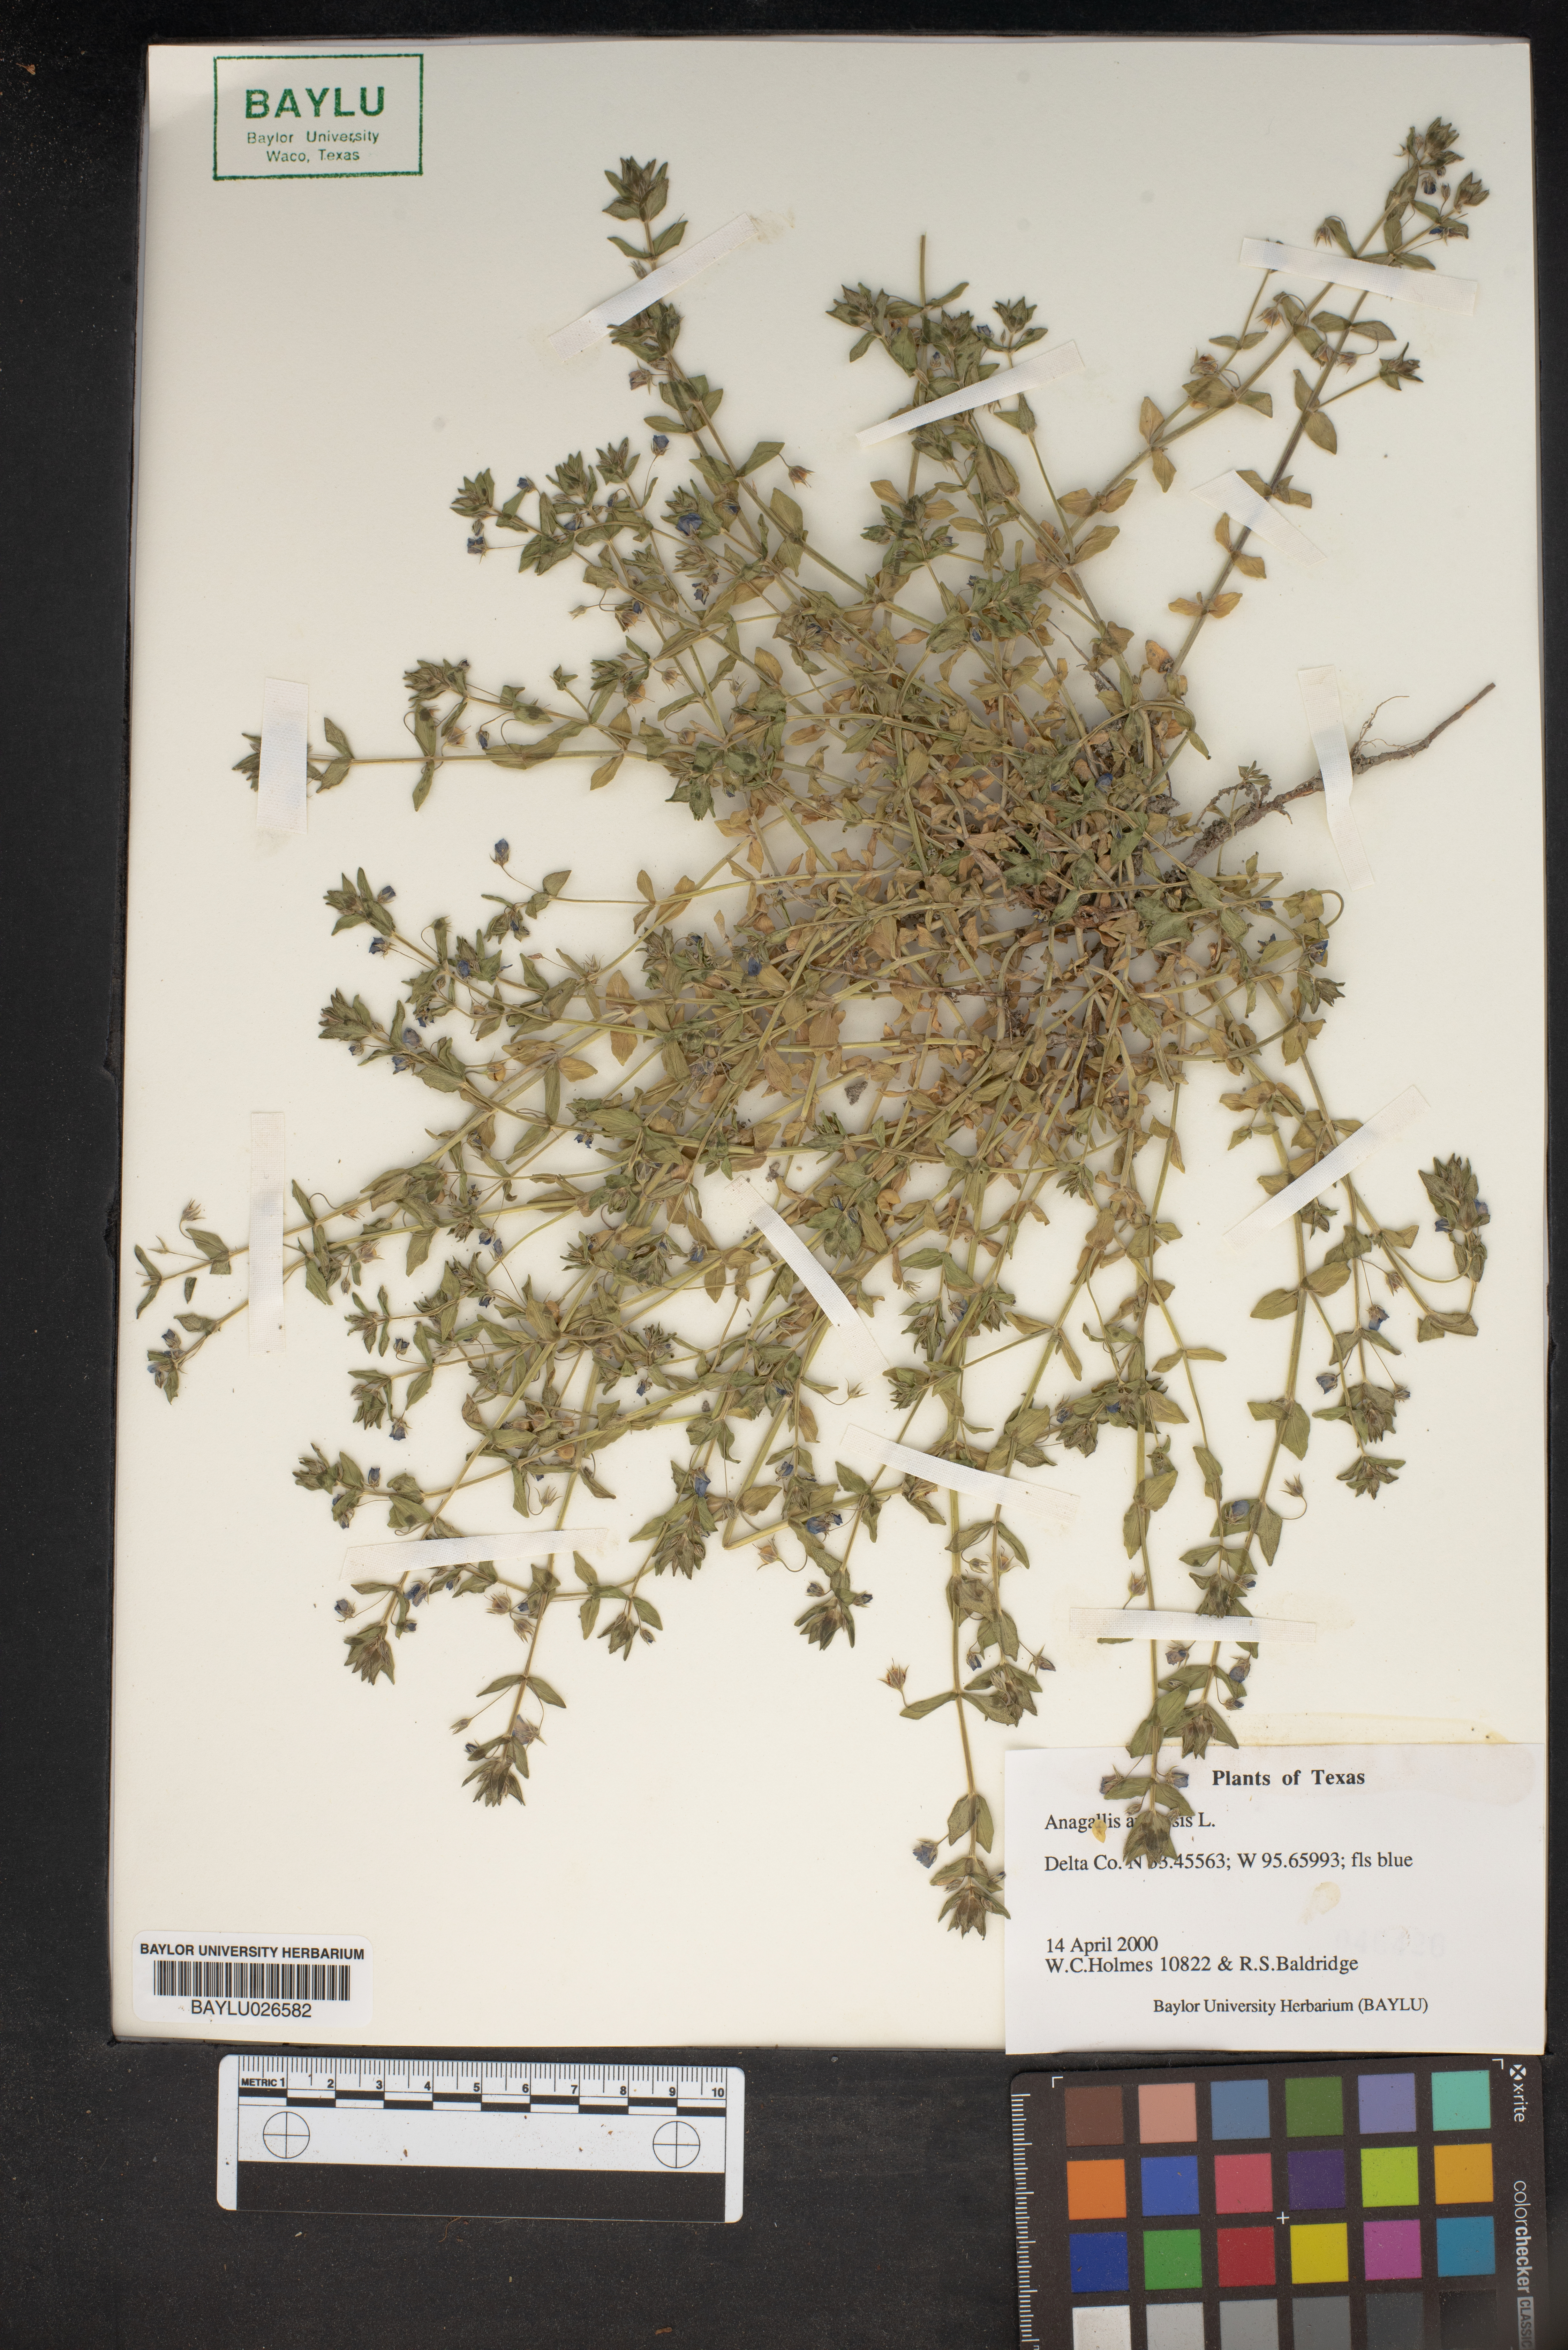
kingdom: Plantae
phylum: Tracheophyta
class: Magnoliopsida
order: Ericales
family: Primulaceae
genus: Lysimachia
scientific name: Lysimachia arvensis
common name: Scarlet pimpernel
